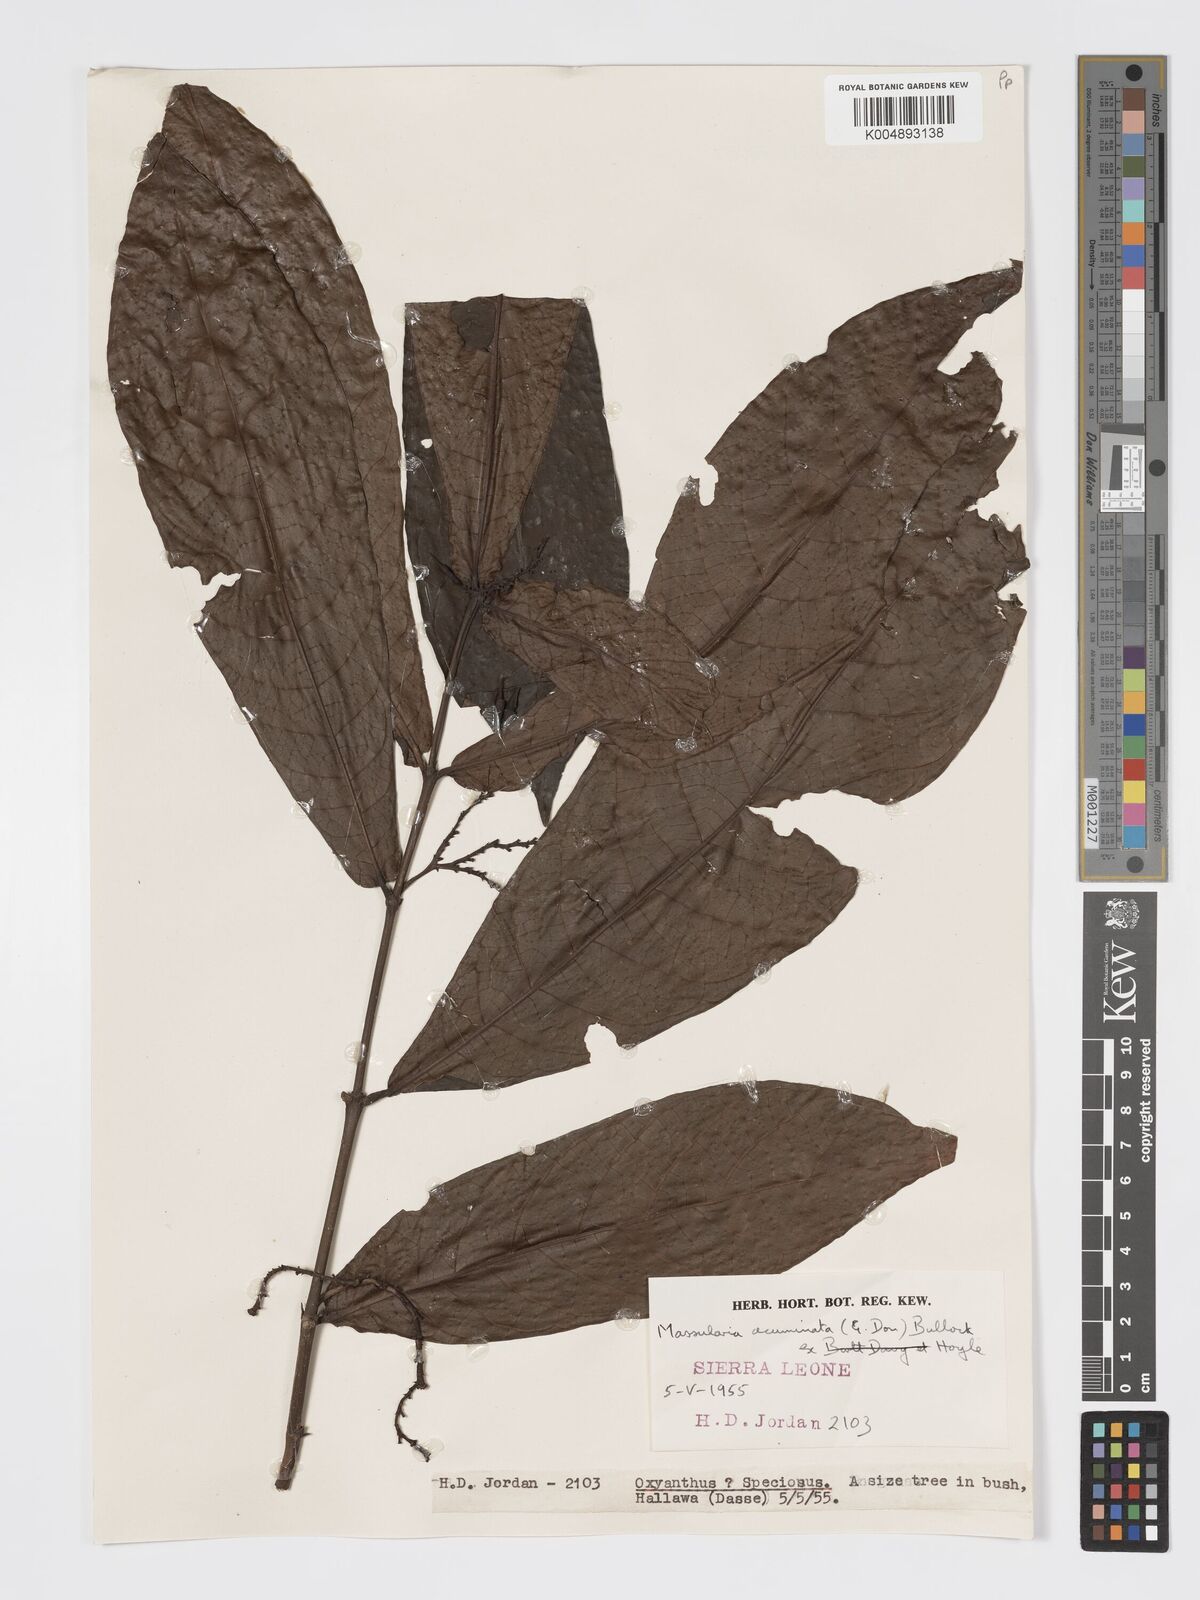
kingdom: Plantae
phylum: Tracheophyta
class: Magnoliopsida
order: Gentianales
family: Rubiaceae
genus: Massularia
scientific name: Massularia acuminata
